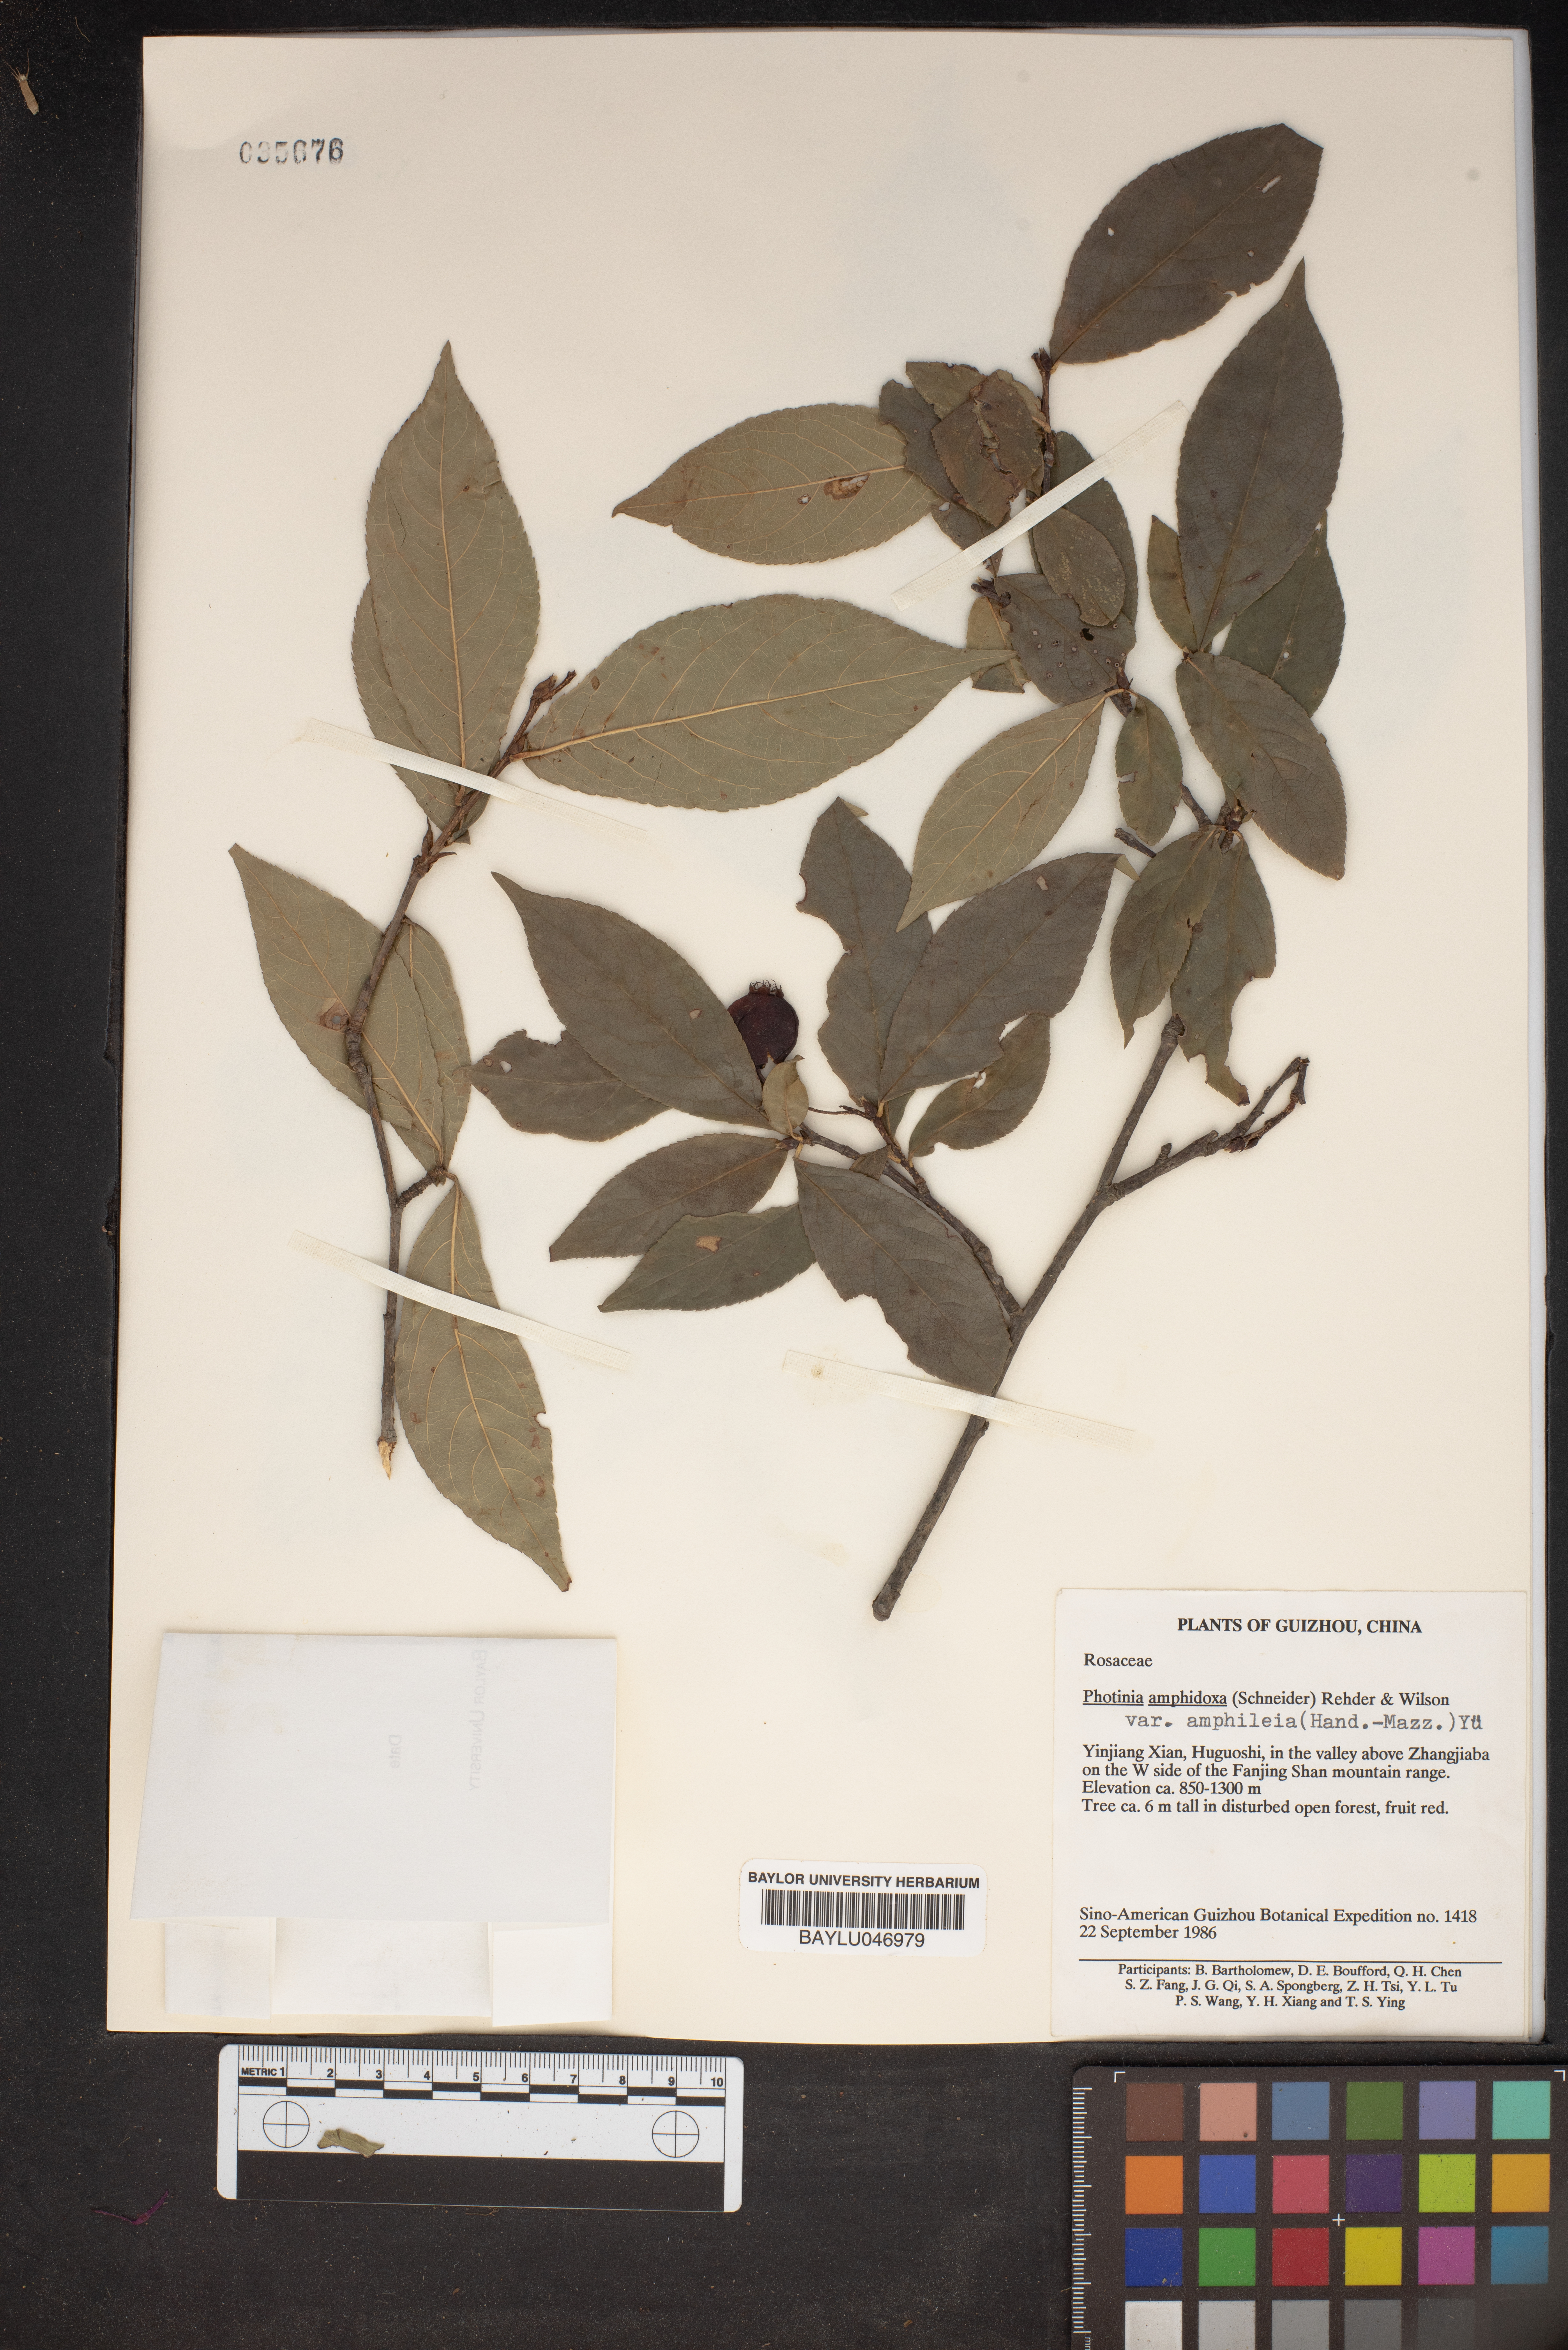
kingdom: Plantae
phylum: Tracheophyta
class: Magnoliopsida
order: Rosales
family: Rosaceae
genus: Pourthiaea
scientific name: Pourthiaea amphidoxa
